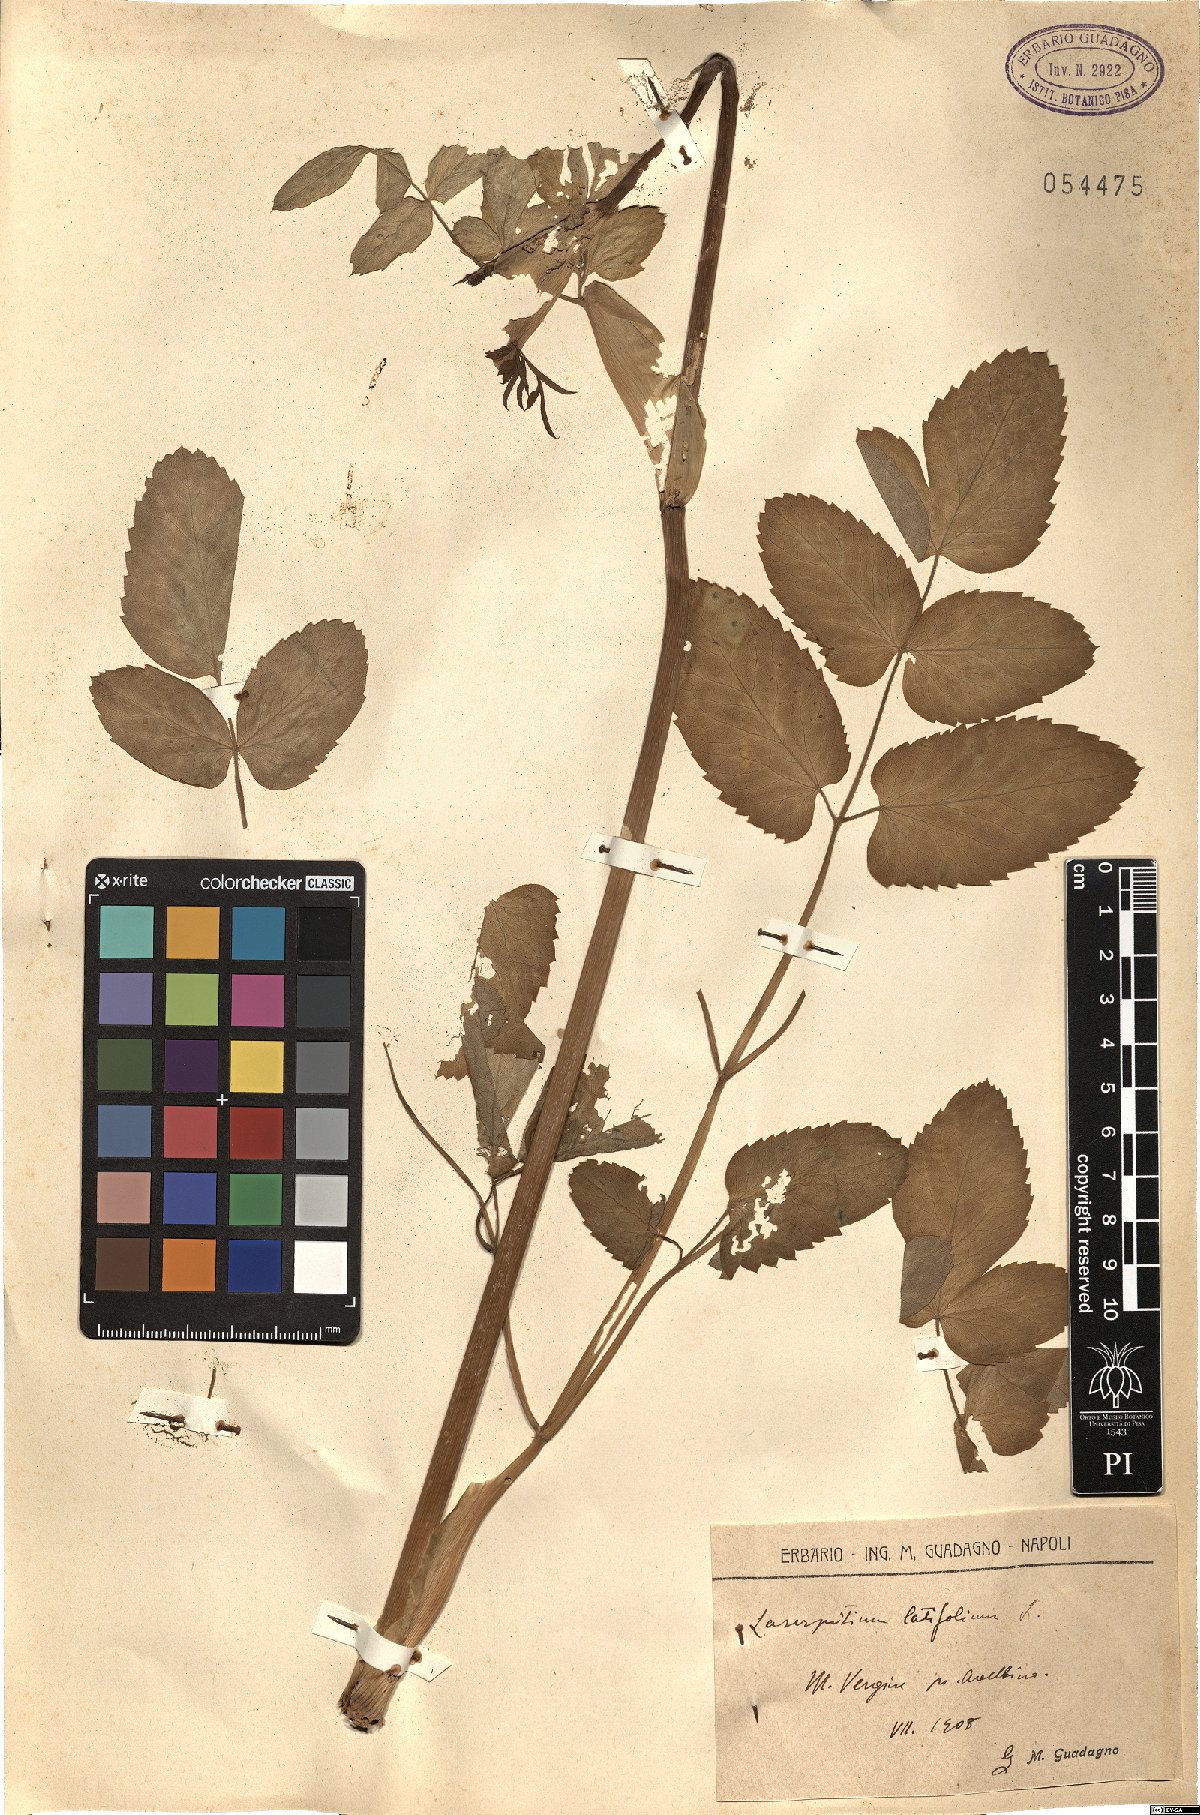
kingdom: Plantae
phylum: Tracheophyta
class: Magnoliopsida
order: Apiales
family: Apiaceae
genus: Laserpitium
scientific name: Laserpitium latifolium
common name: Broadleaf sermountain
